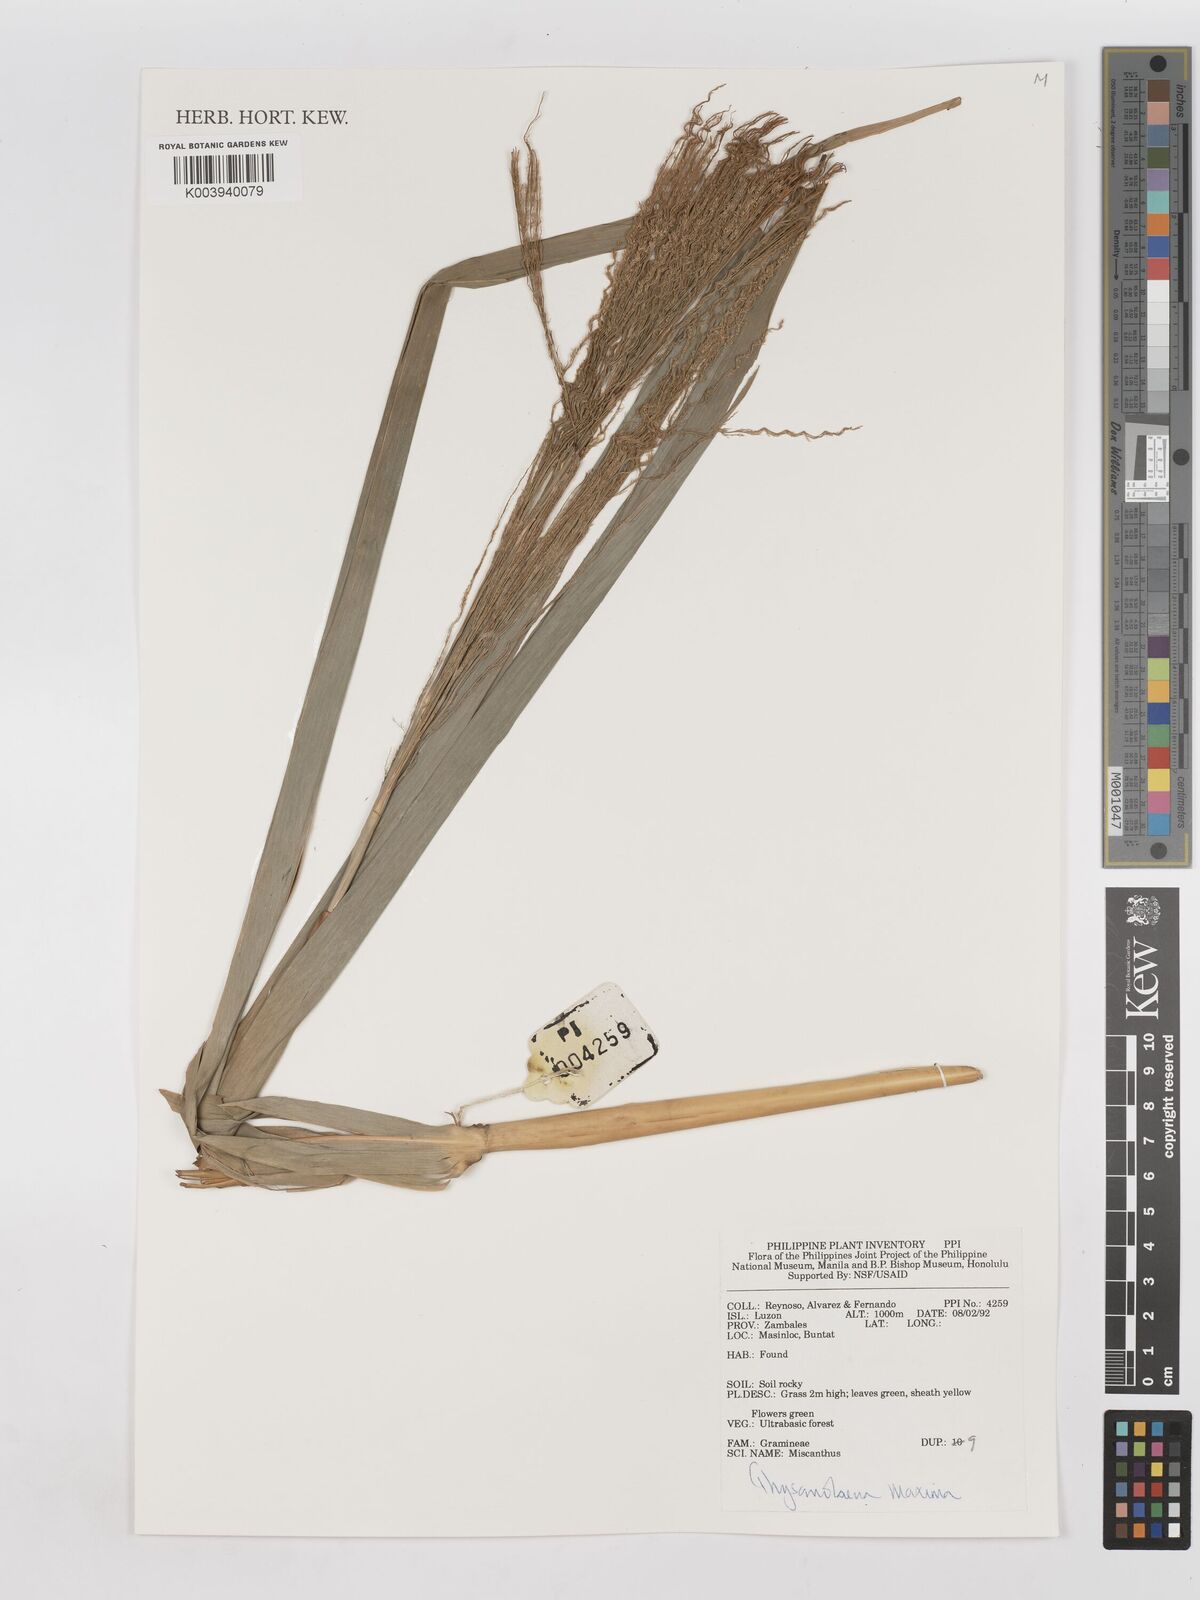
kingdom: Plantae
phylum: Tracheophyta
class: Liliopsida
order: Poales
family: Poaceae
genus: Thysanolaena
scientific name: Thysanolaena latifolia
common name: Tiger grass
